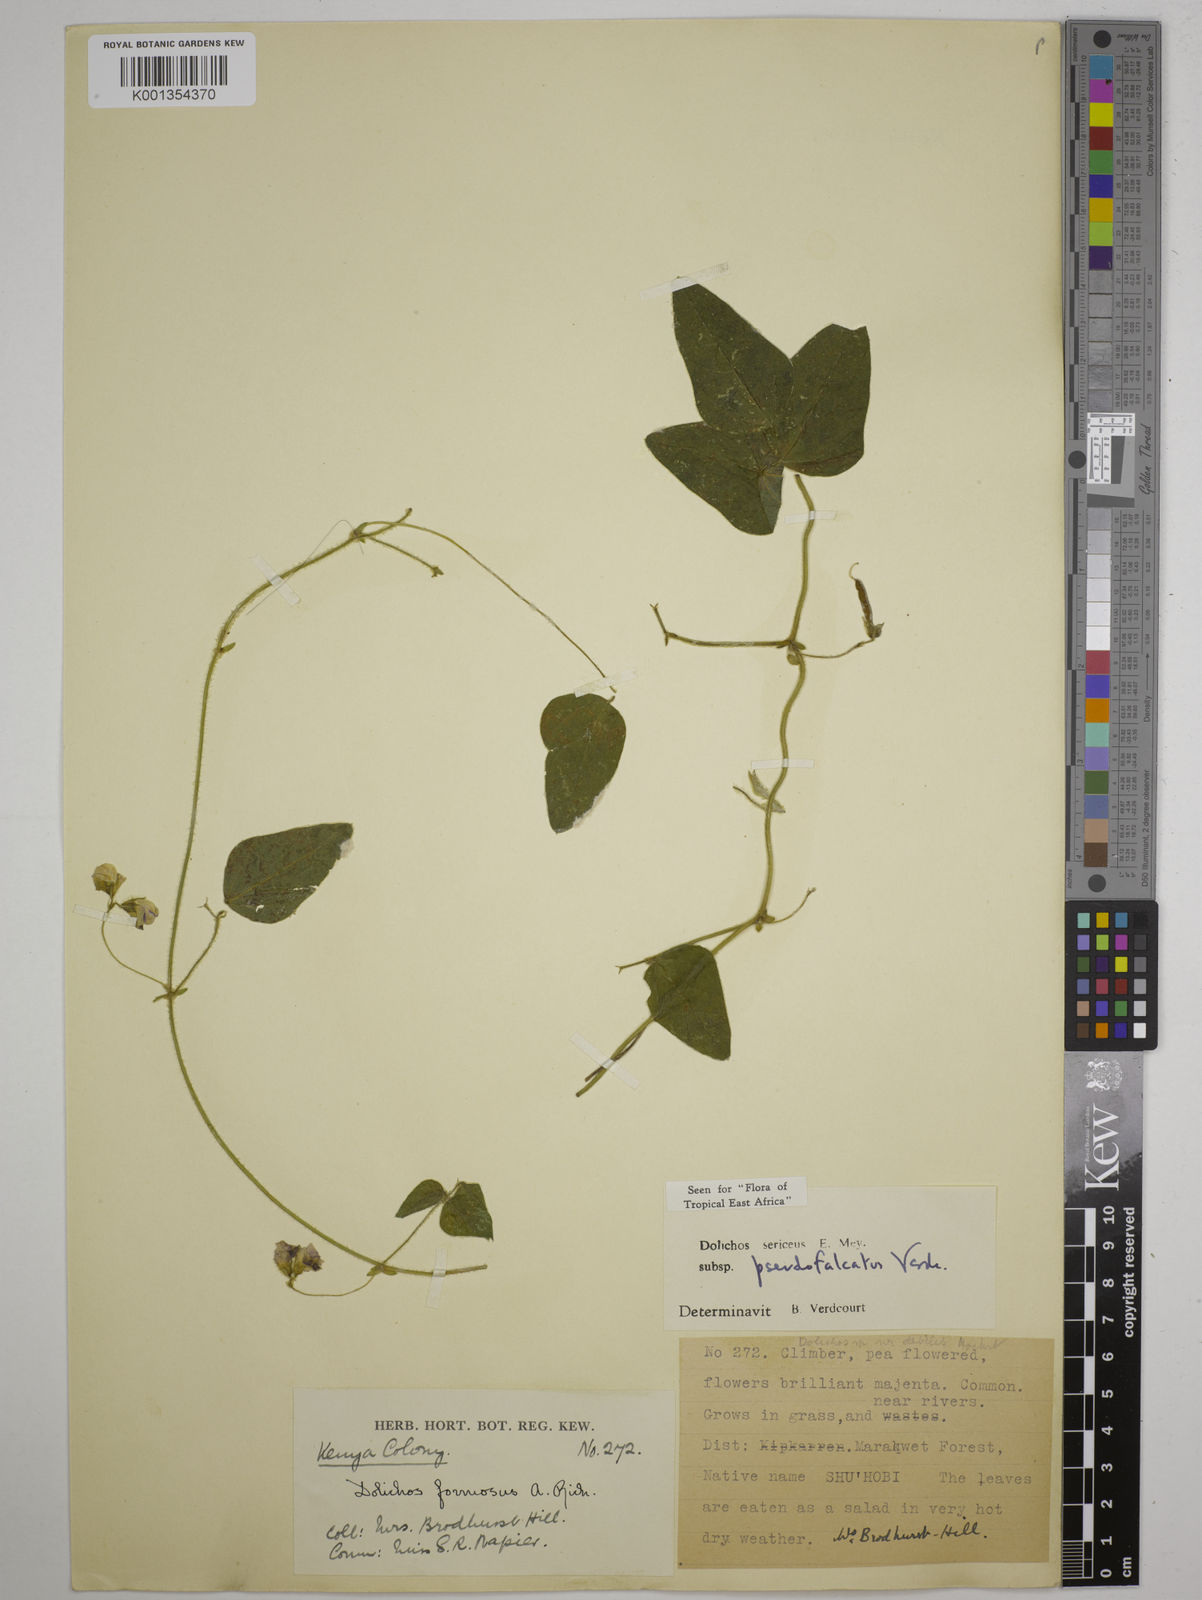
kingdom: Plantae
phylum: Tracheophyta
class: Magnoliopsida
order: Fabales
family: Fabaceae
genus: Dolichos
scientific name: Dolichos
